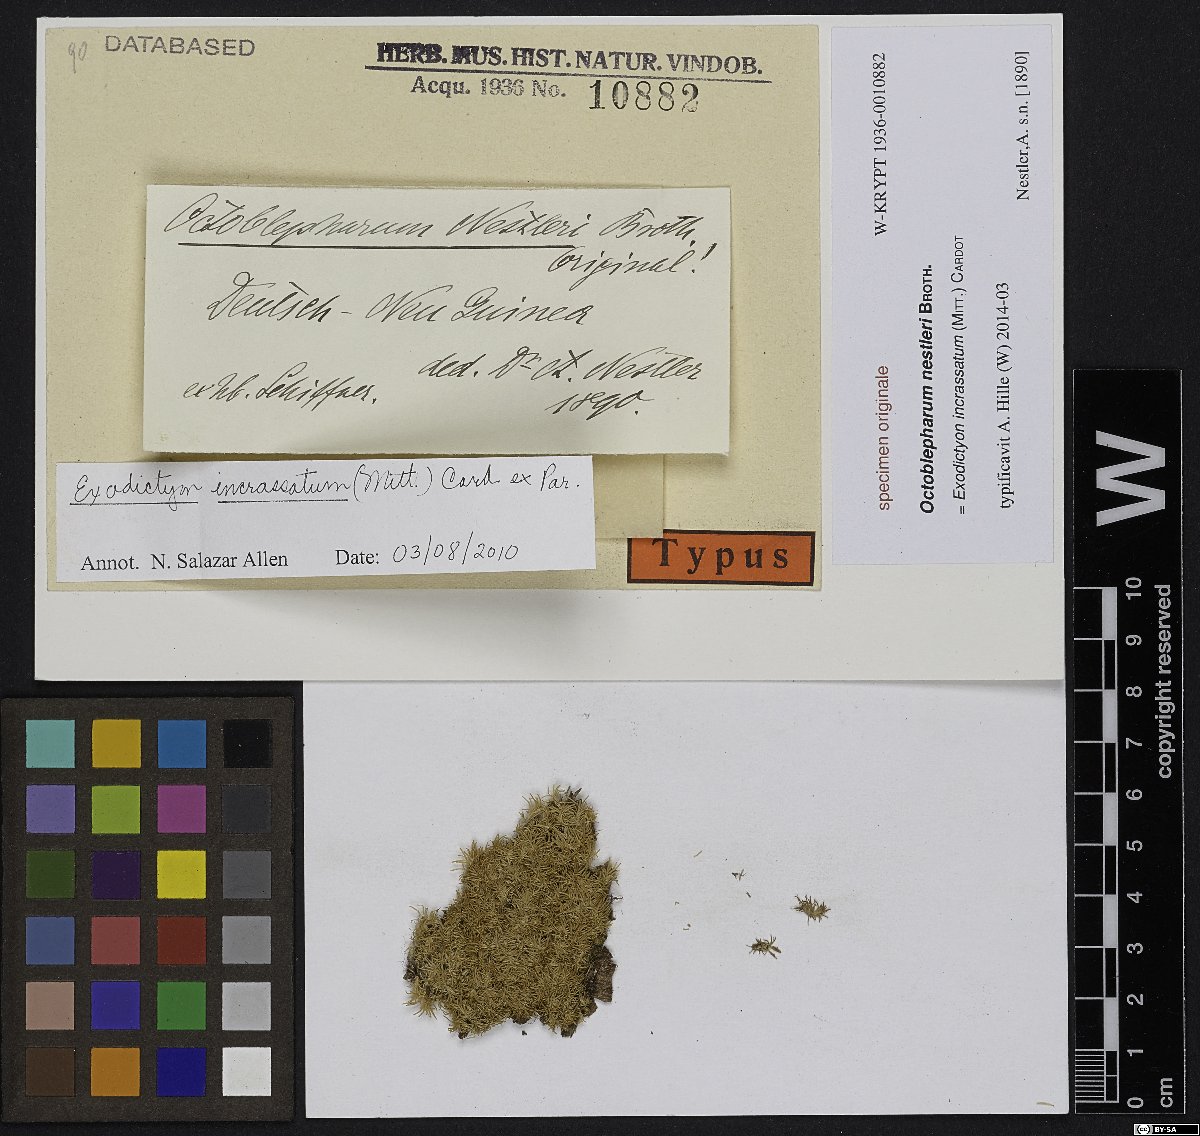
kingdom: Plantae
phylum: Bryophyta
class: Bryopsida
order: Dicranales
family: Calymperaceae
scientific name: Calymperaceae
